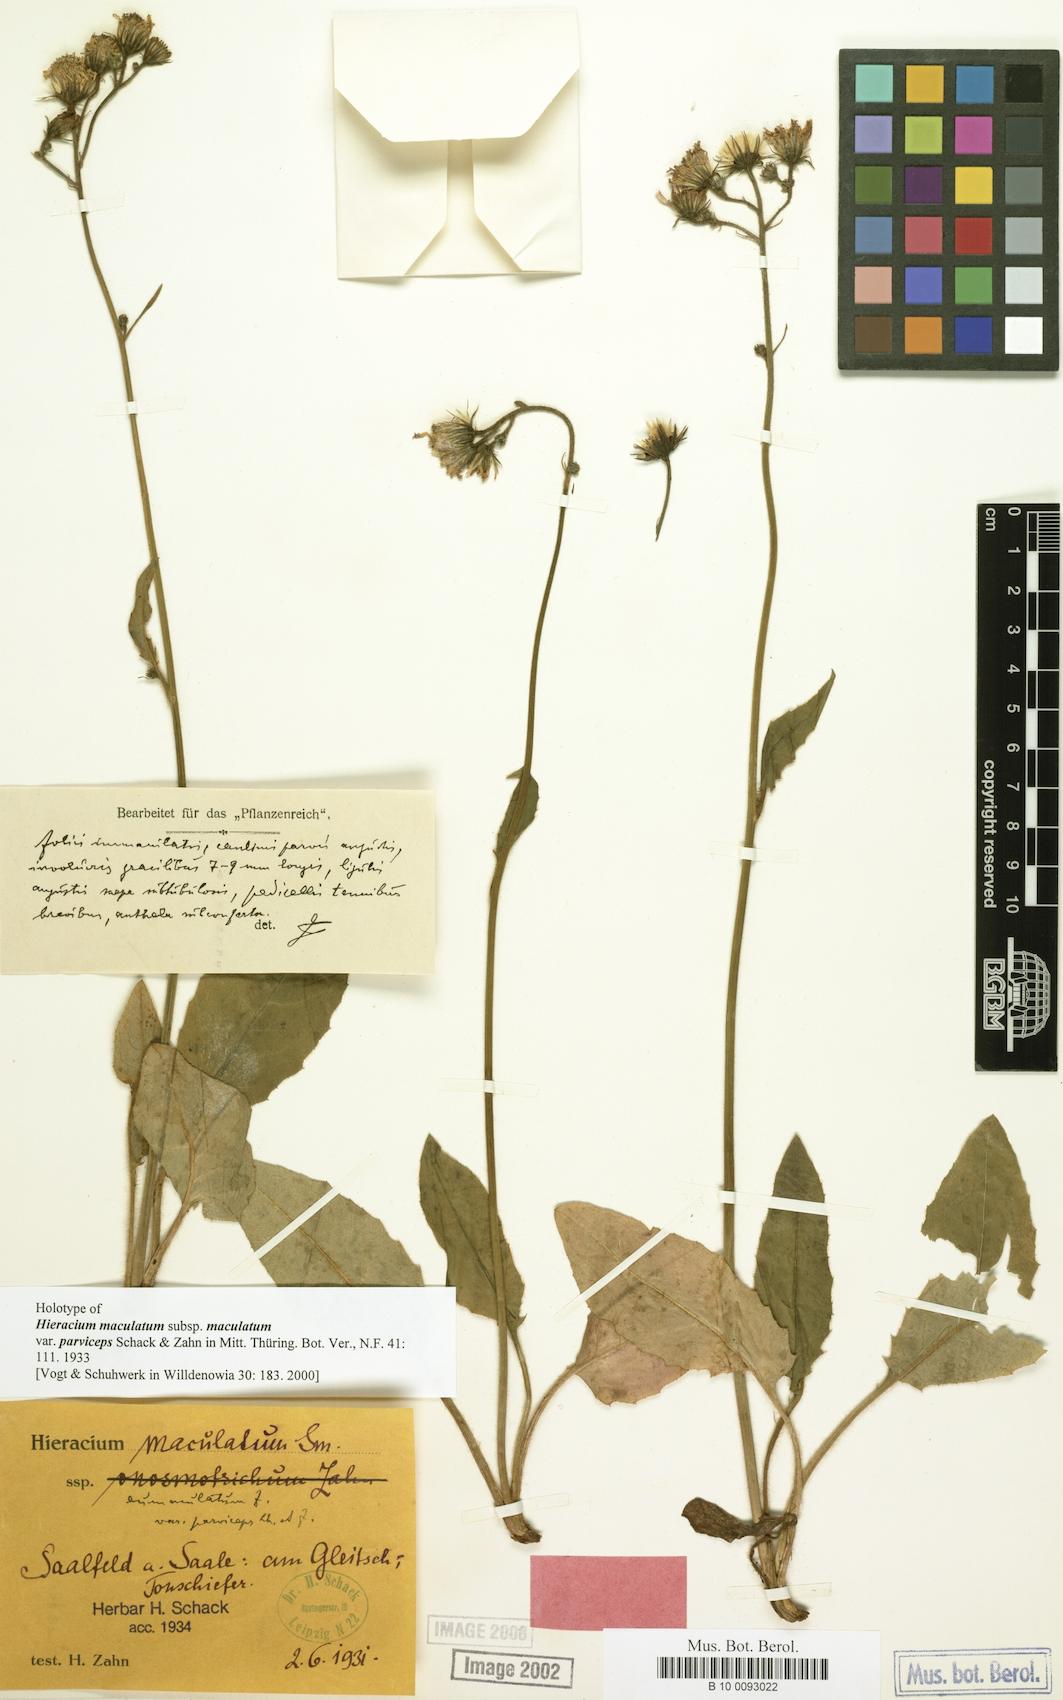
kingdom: Plantae
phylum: Tracheophyta
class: Magnoliopsida
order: Asterales
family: Asteraceae
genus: Hieracium
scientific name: Hieracium maculatum
